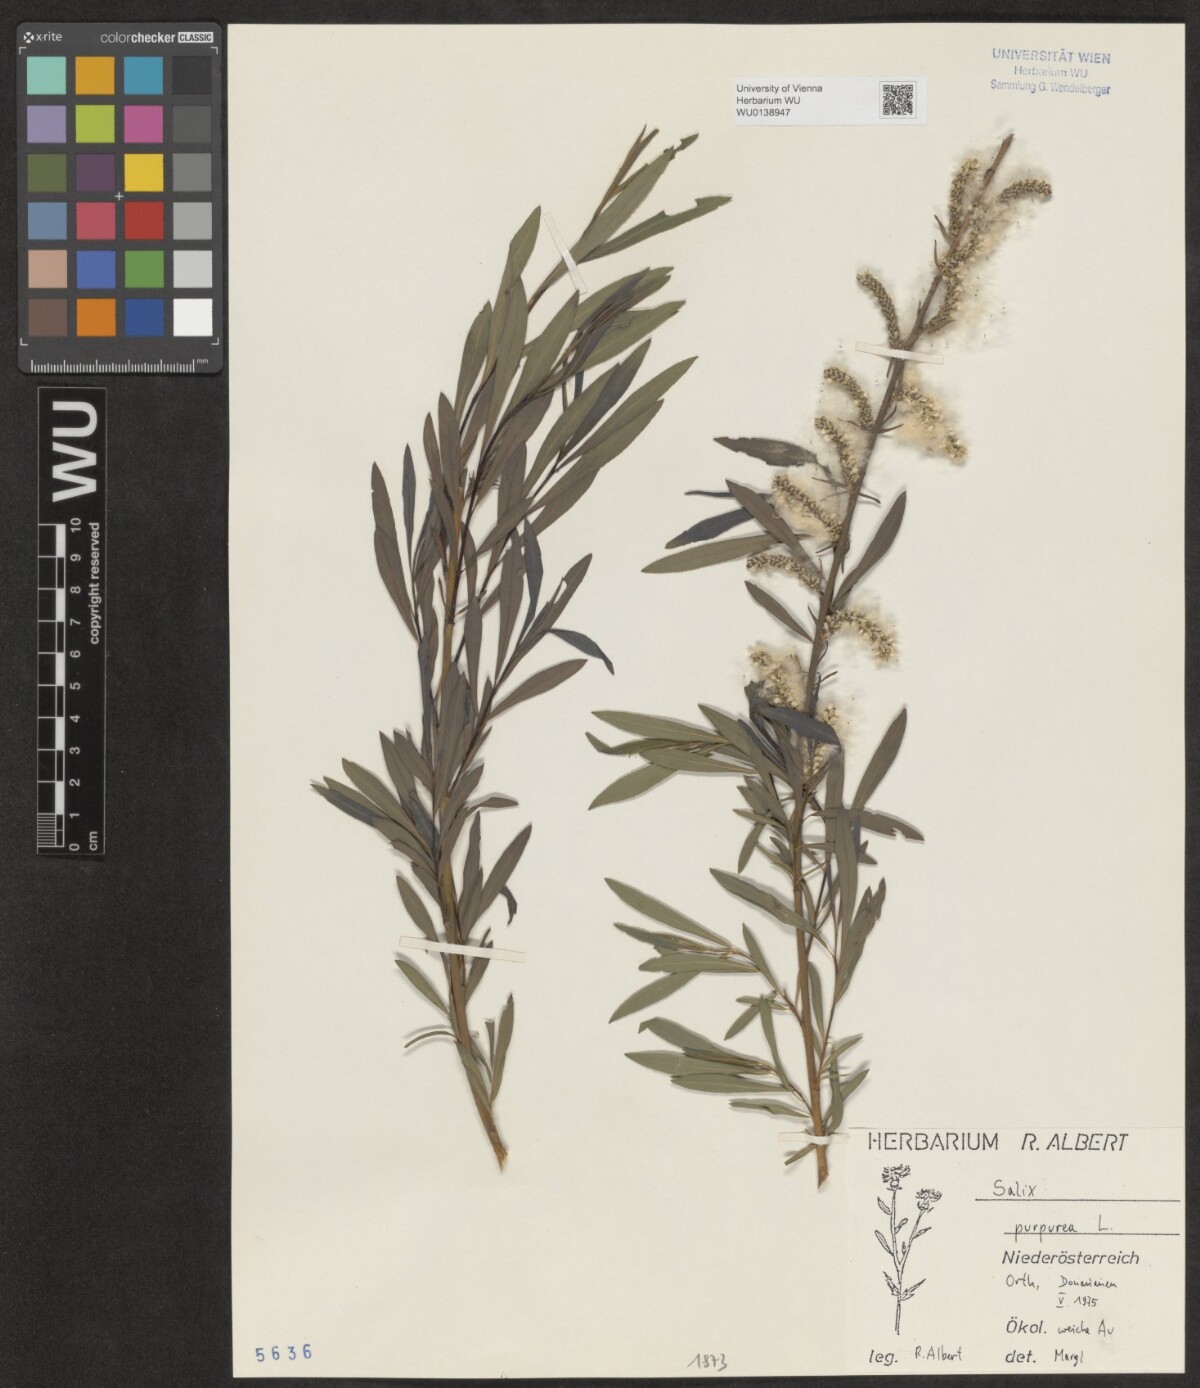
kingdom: Plantae
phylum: Tracheophyta
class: Magnoliopsida
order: Malpighiales
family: Salicaceae
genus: Salix
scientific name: Salix purpurea
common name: Purple willow
